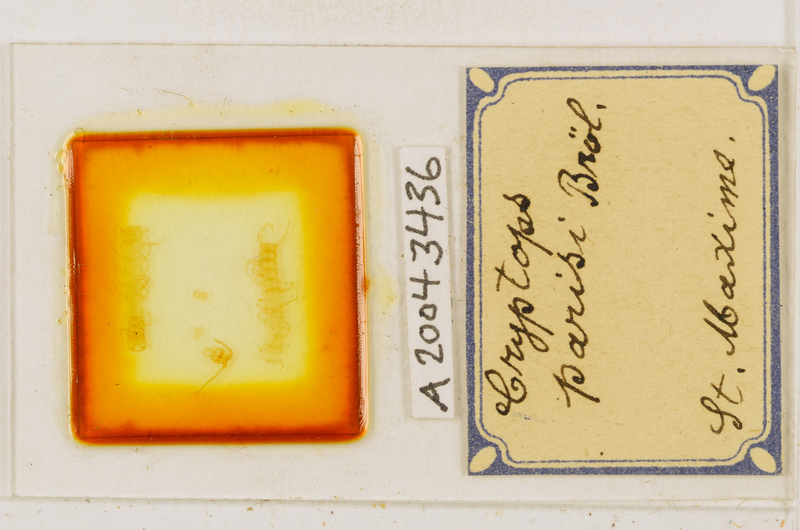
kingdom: Animalia
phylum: Arthropoda
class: Chilopoda
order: Scolopendromorpha
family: Cryptopidae
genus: Cryptops
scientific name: Cryptops parisi
